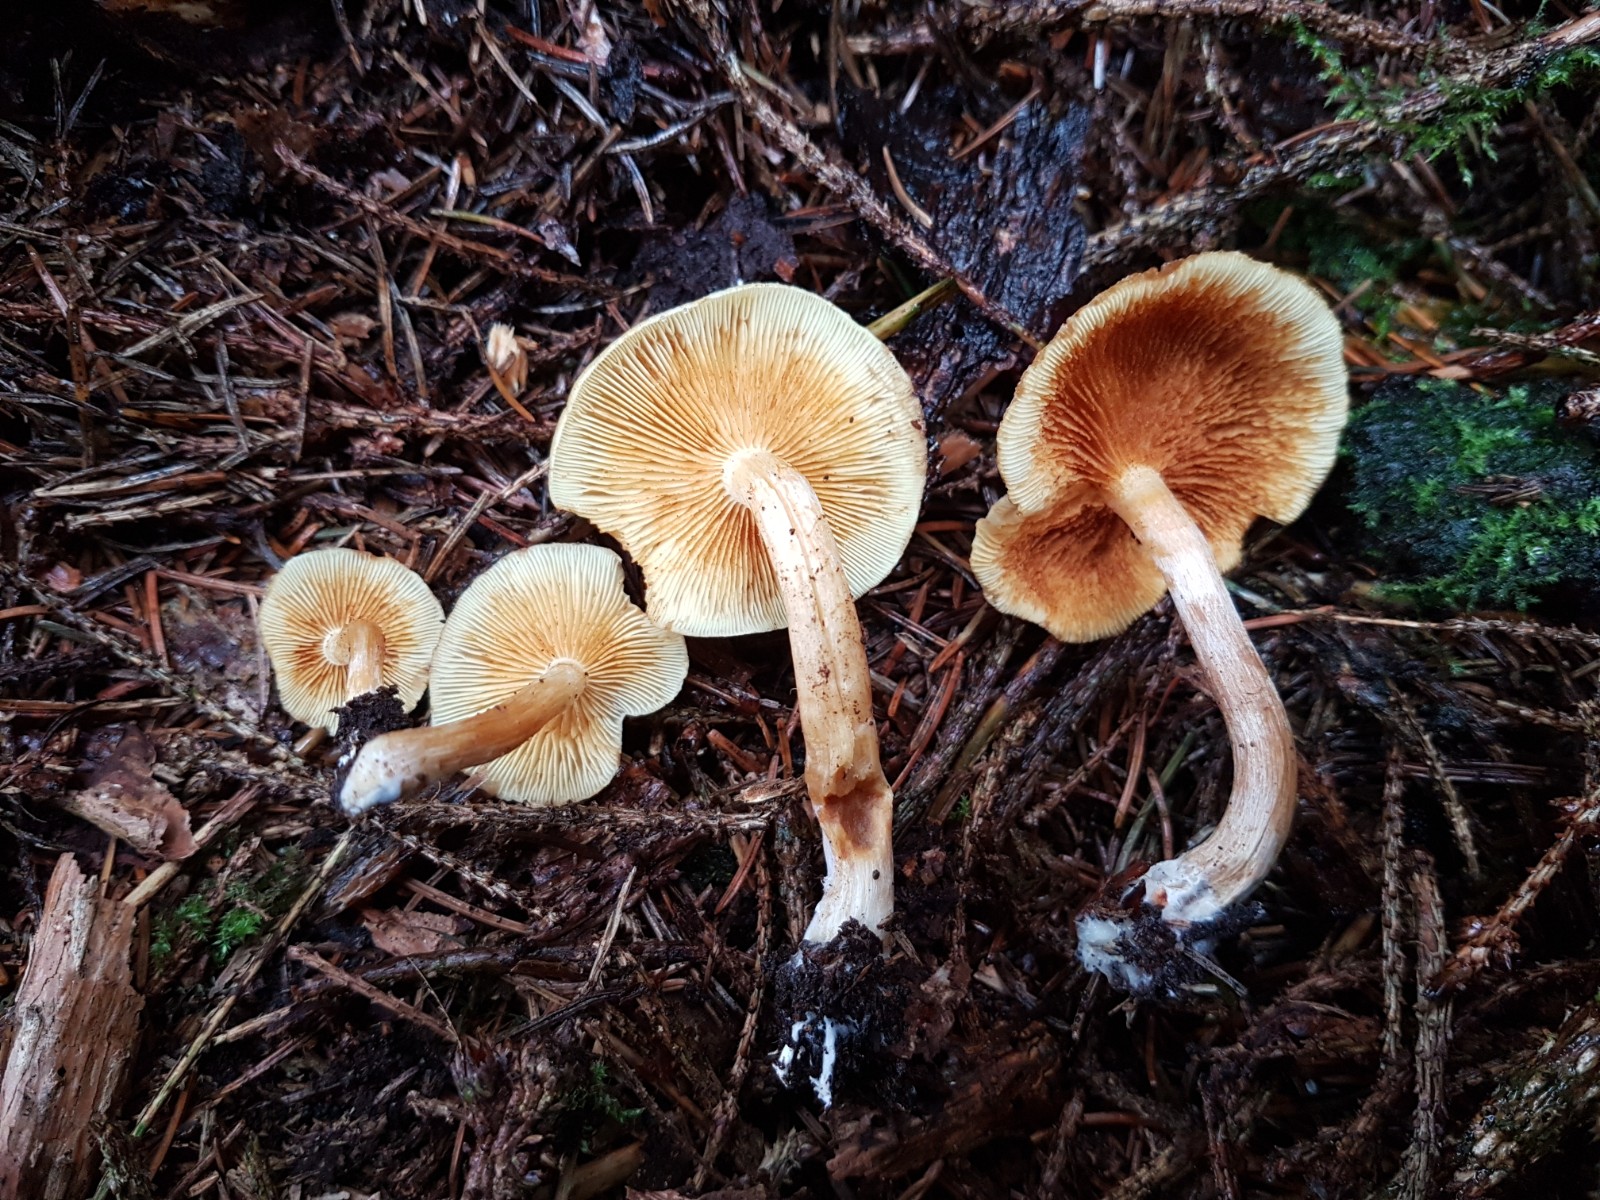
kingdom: Fungi
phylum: Basidiomycota
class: Agaricomycetes
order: Agaricales
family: Hymenogastraceae
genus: Gymnopilus
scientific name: Gymnopilus penetrans
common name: plettet flammehat
